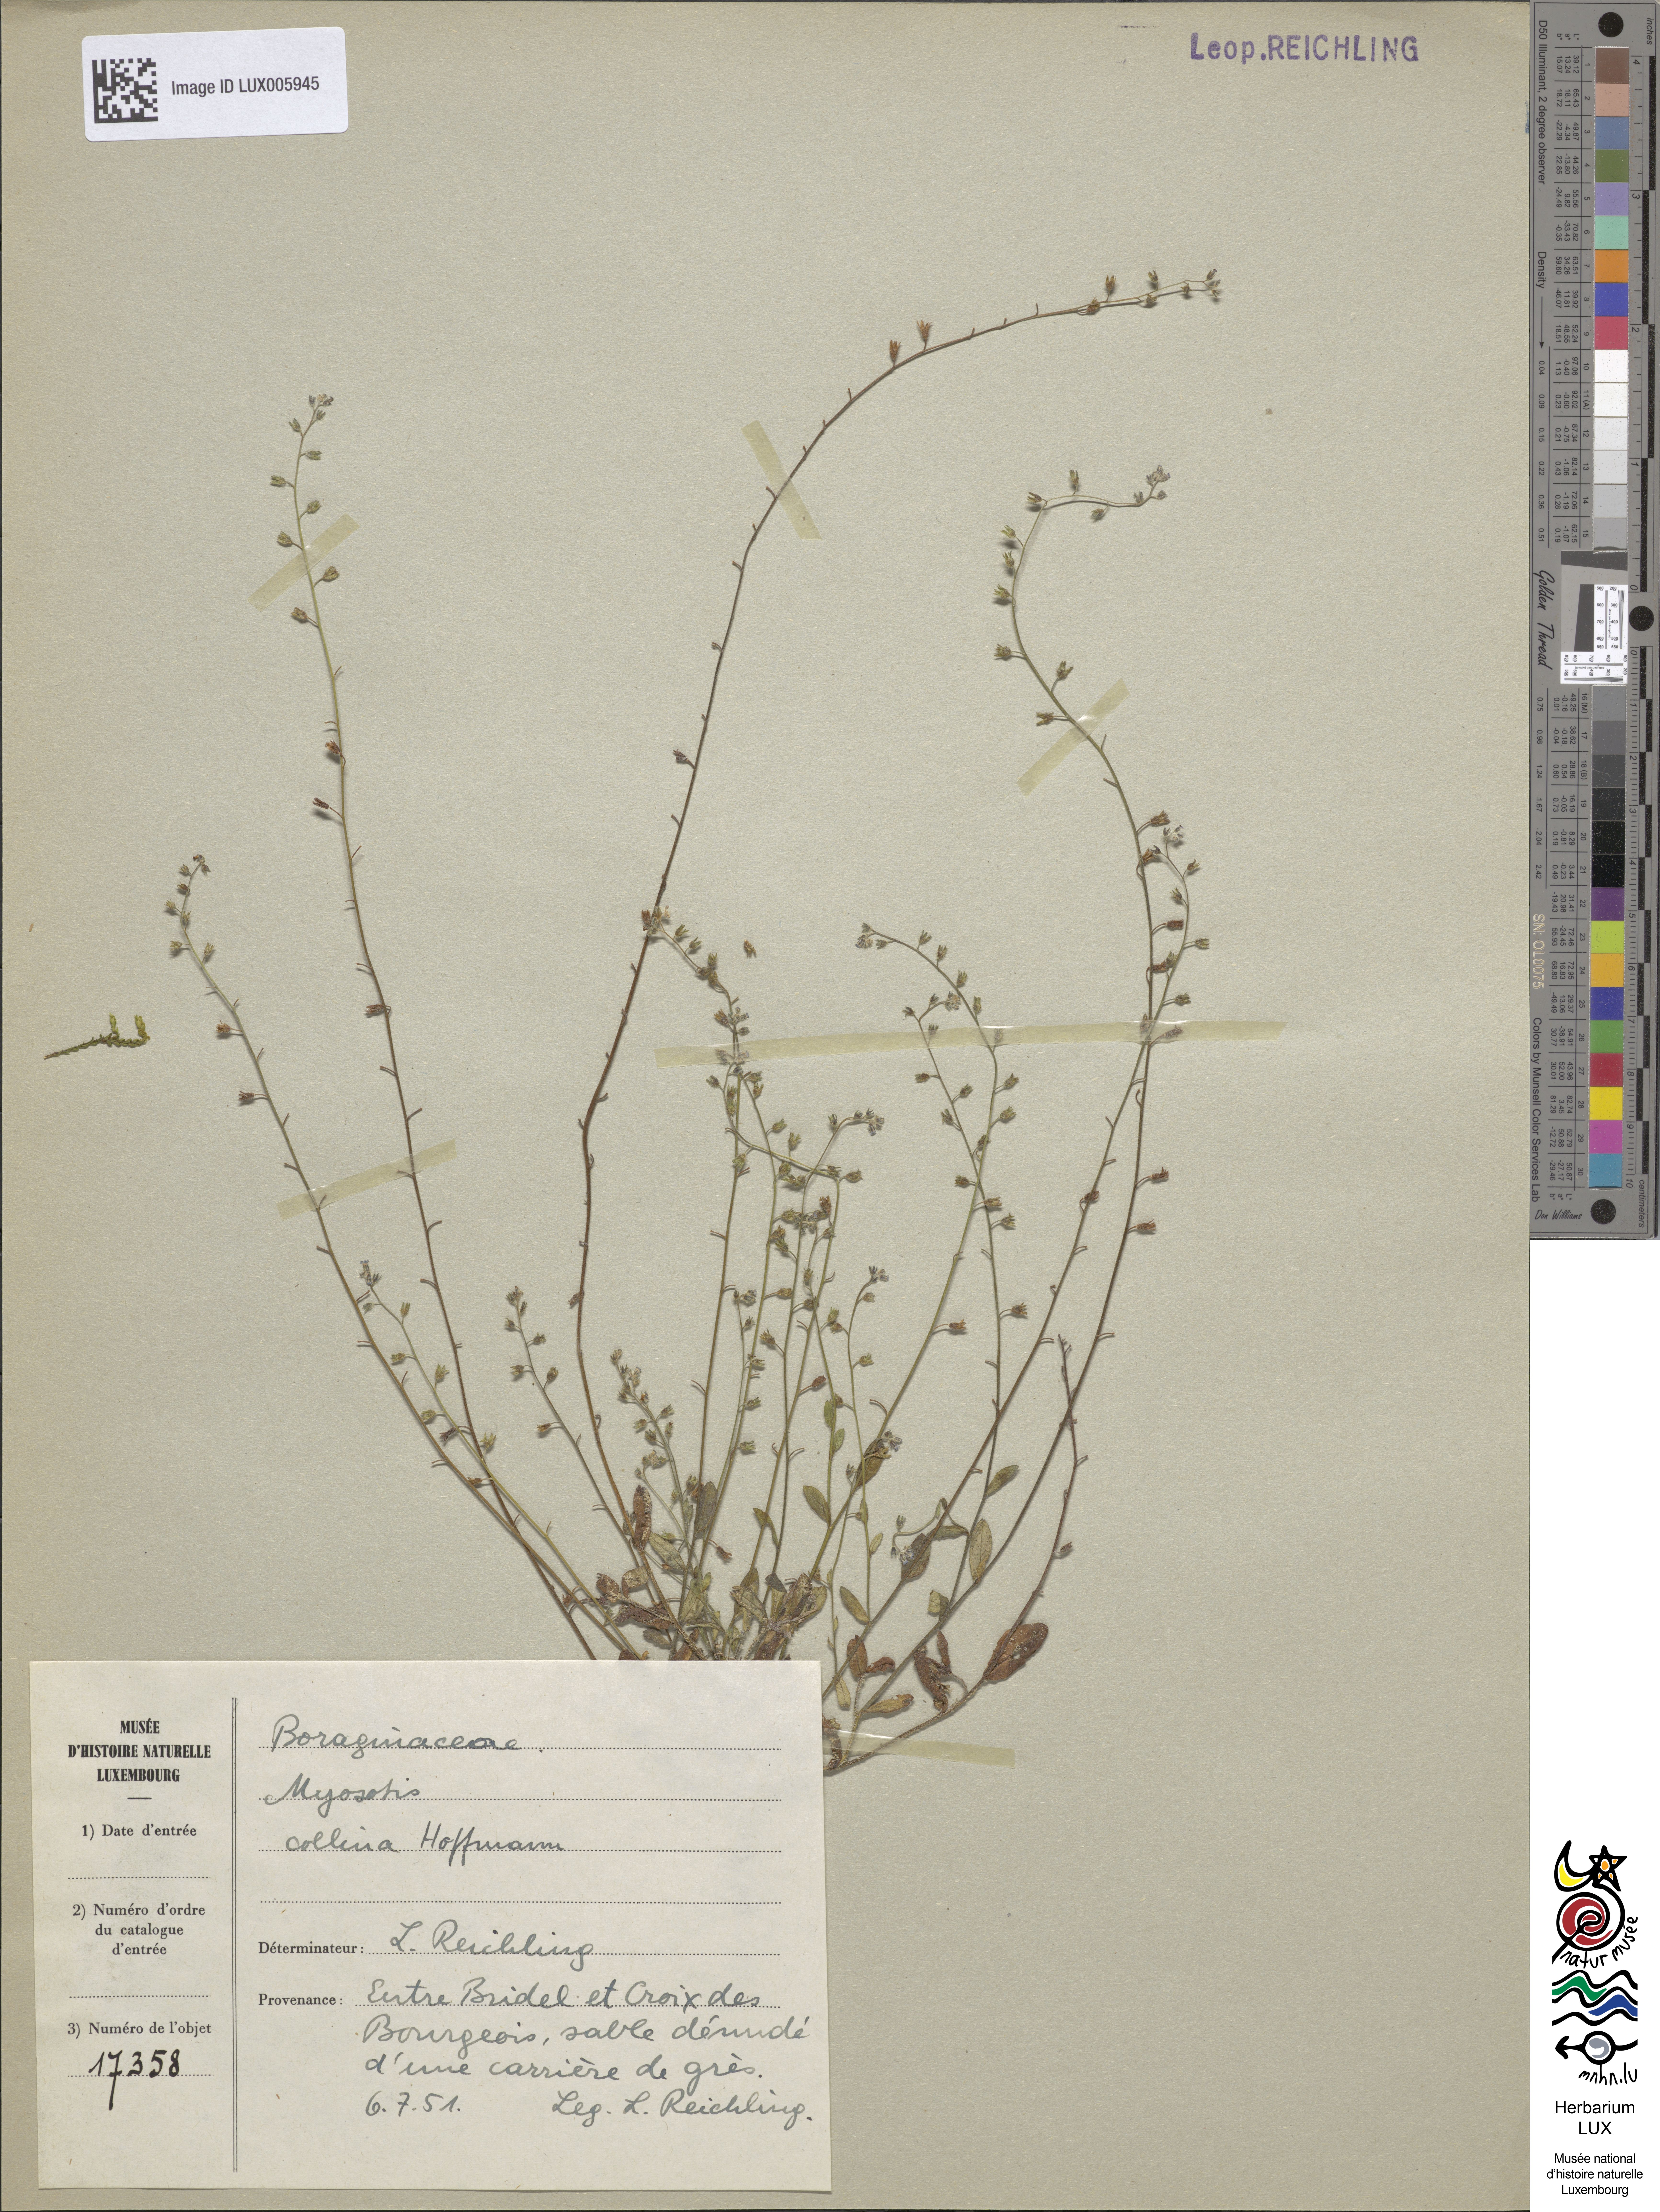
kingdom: Plantae
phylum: Tracheophyta
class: Magnoliopsida
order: Boraginales
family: Boraginaceae
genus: Myosotis
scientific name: Myosotis discolor
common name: Changing forget-me-not
